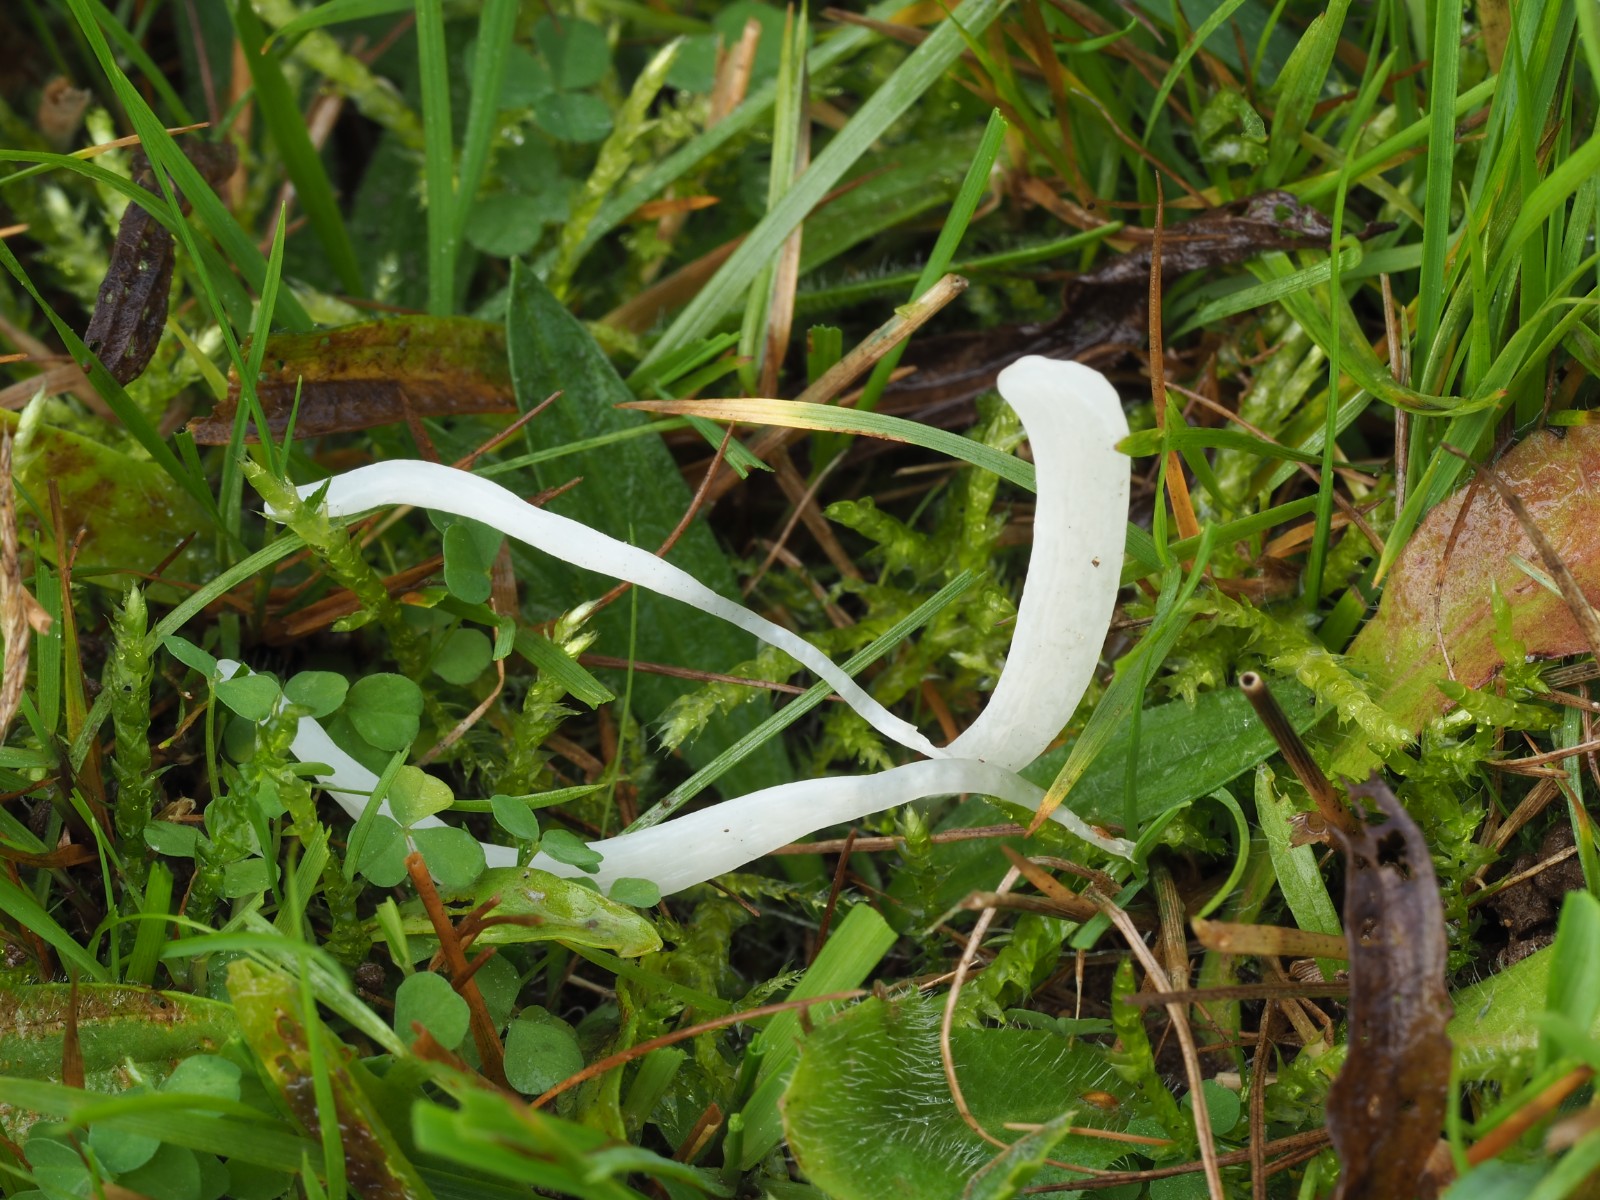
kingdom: Fungi
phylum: Basidiomycota
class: Agaricomycetes
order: Agaricales
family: Clavariaceae
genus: Clavaria
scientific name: Clavaria falcata
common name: hvid køllesvamp
